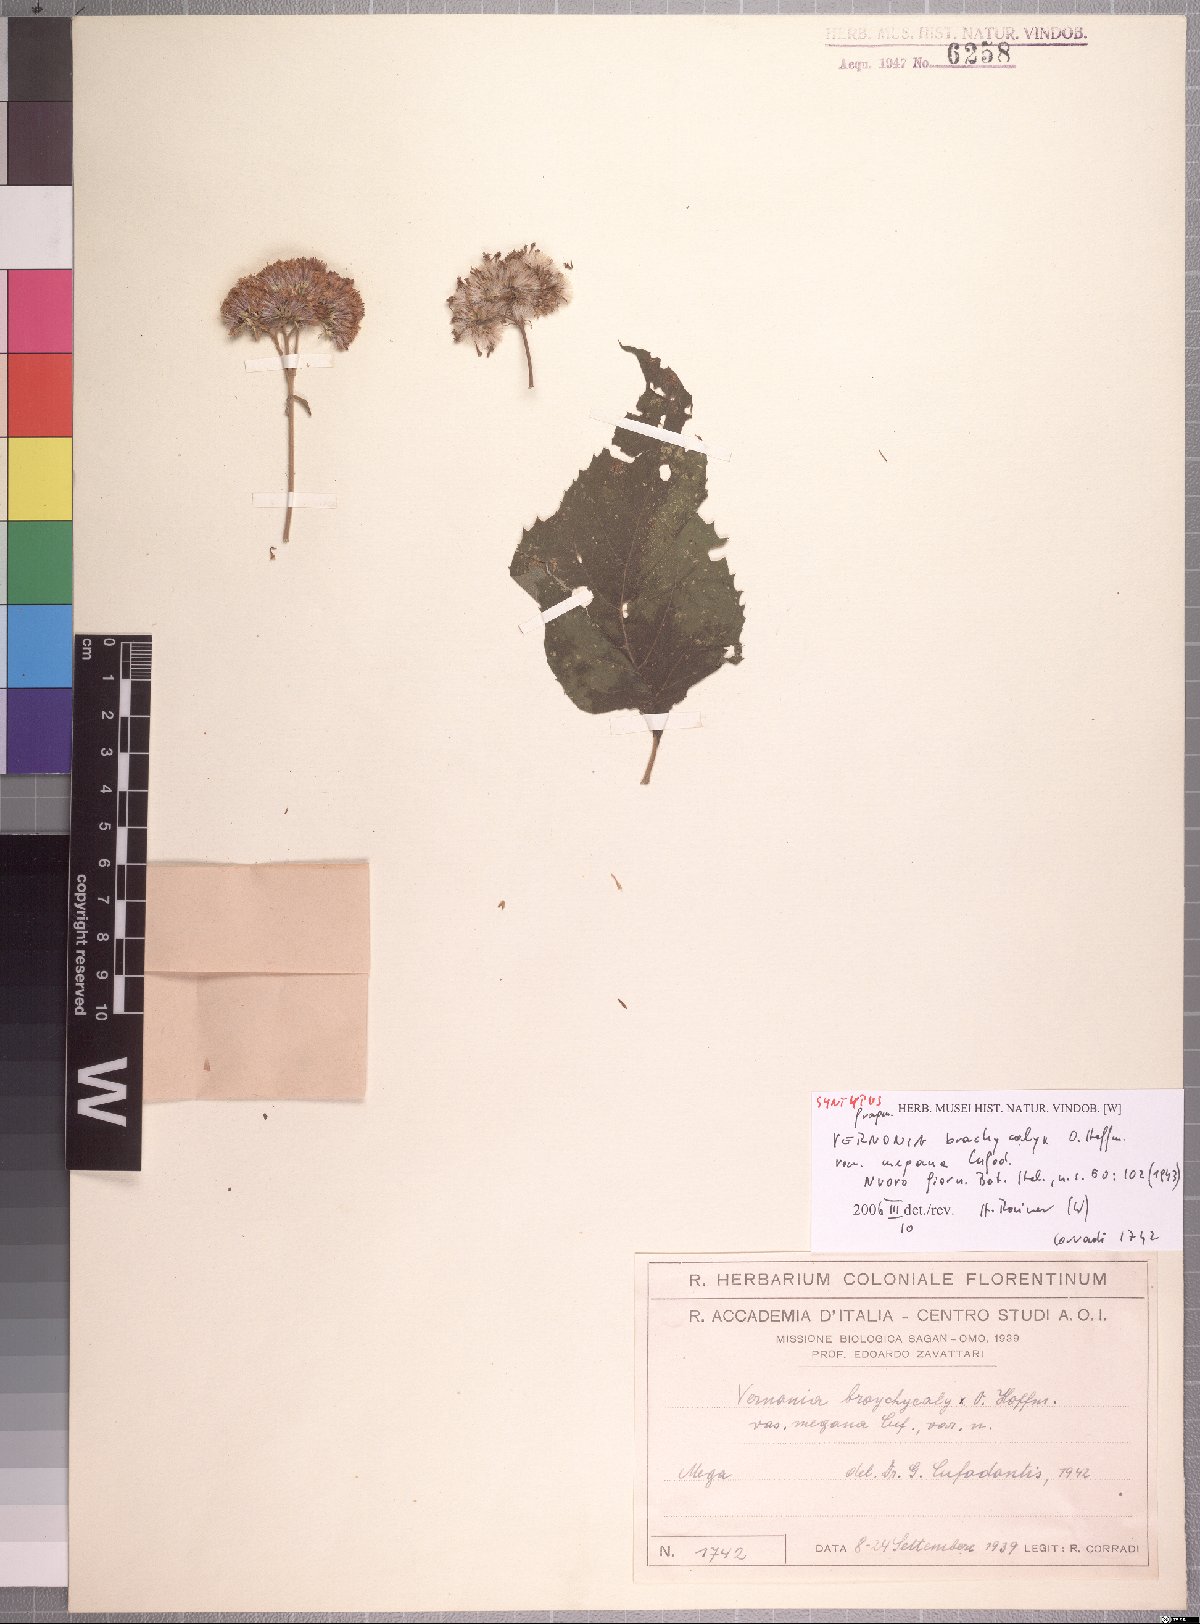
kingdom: Plantae
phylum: Tracheophyta
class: Magnoliopsida
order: Asterales
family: Asteraceae
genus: Hoffmannanthus
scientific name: Hoffmannanthus abbotianus
